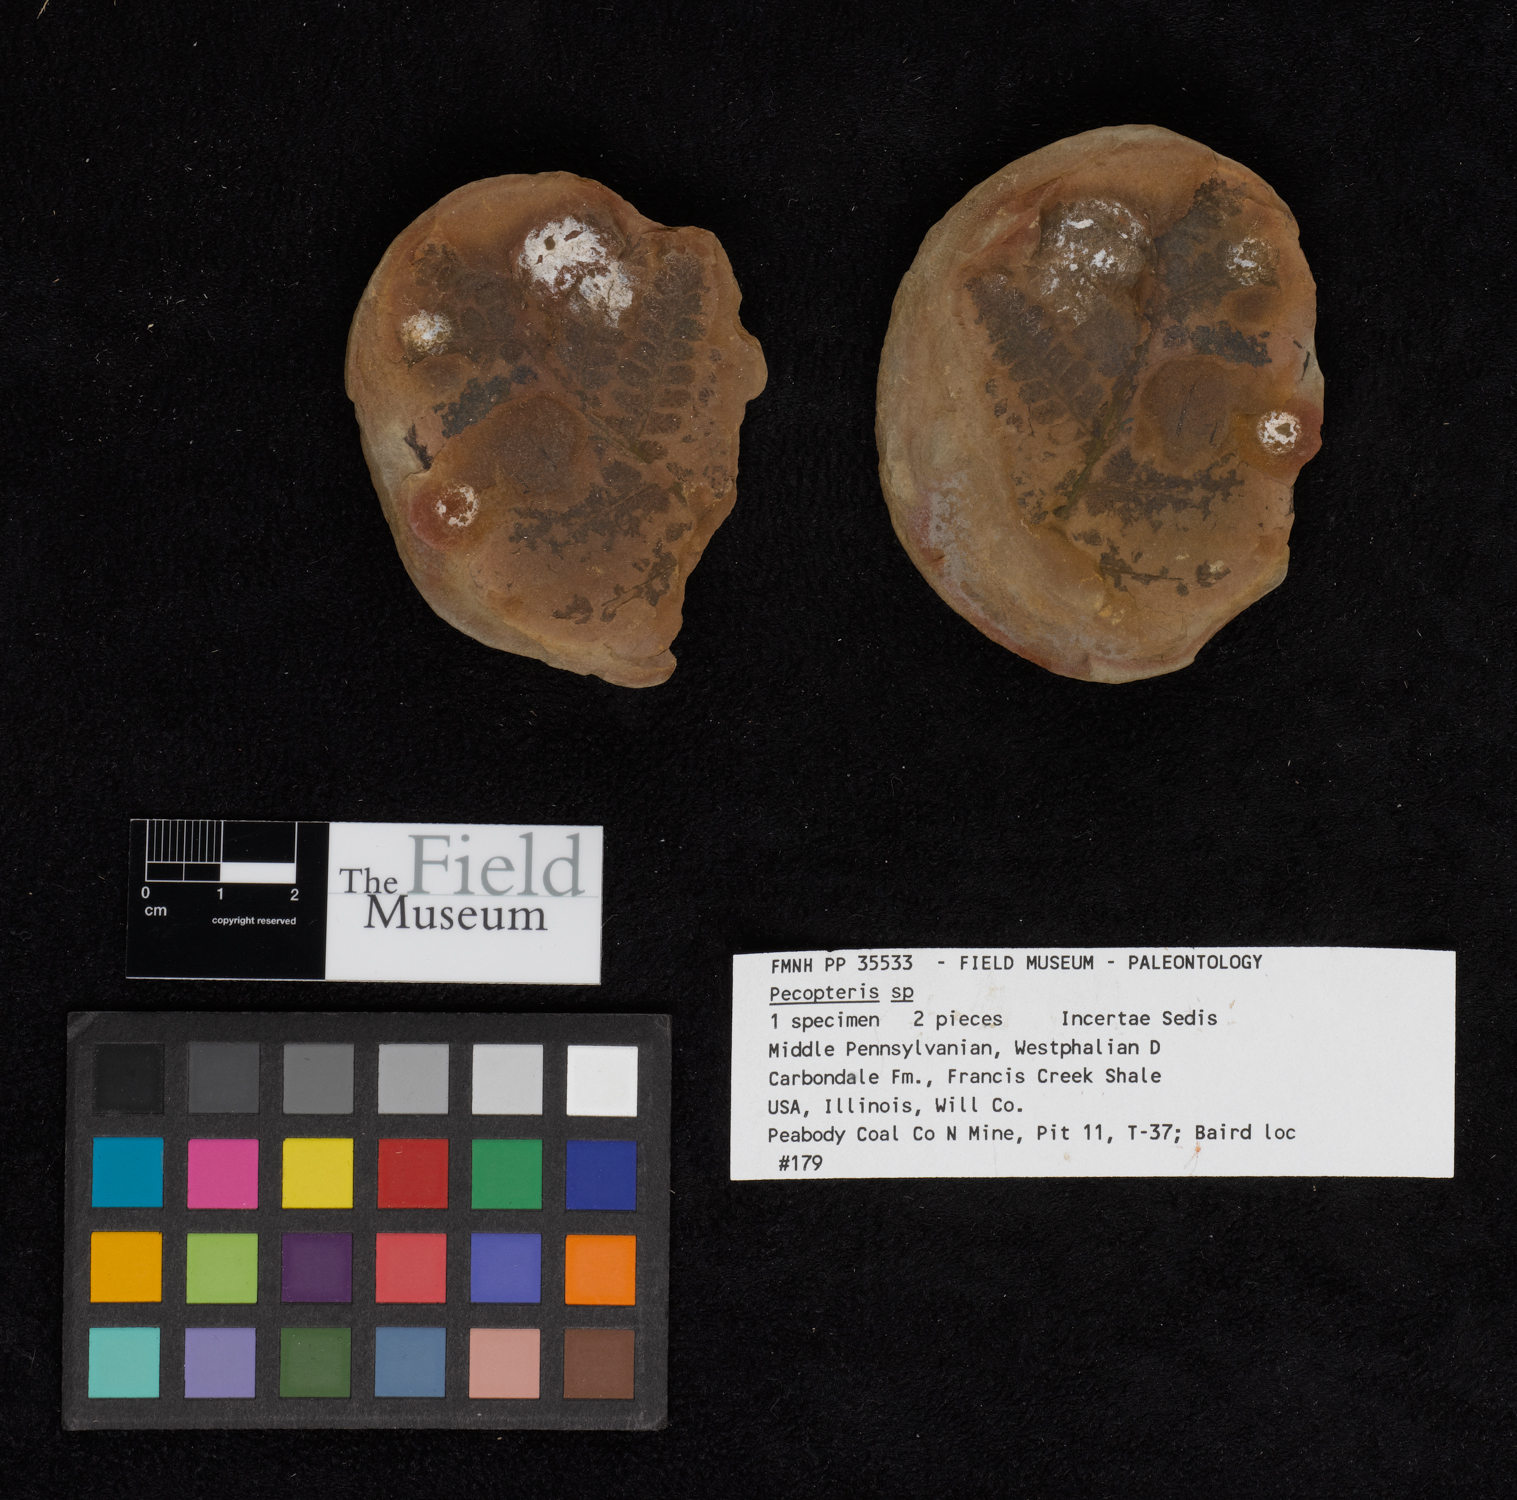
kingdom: Plantae
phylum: Tracheophyta
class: Polypodiopsida
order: Marattiales
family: Asterothecaceae
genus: Pecopteris
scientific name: Pecopteris
